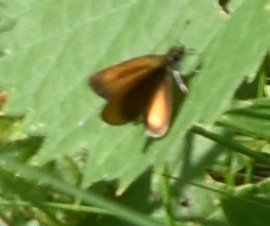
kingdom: Animalia
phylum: Arthropoda
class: Insecta
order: Lepidoptera
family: Hesperiidae
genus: Ancyloxypha
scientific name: Ancyloxypha numitor
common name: Least Skipper
